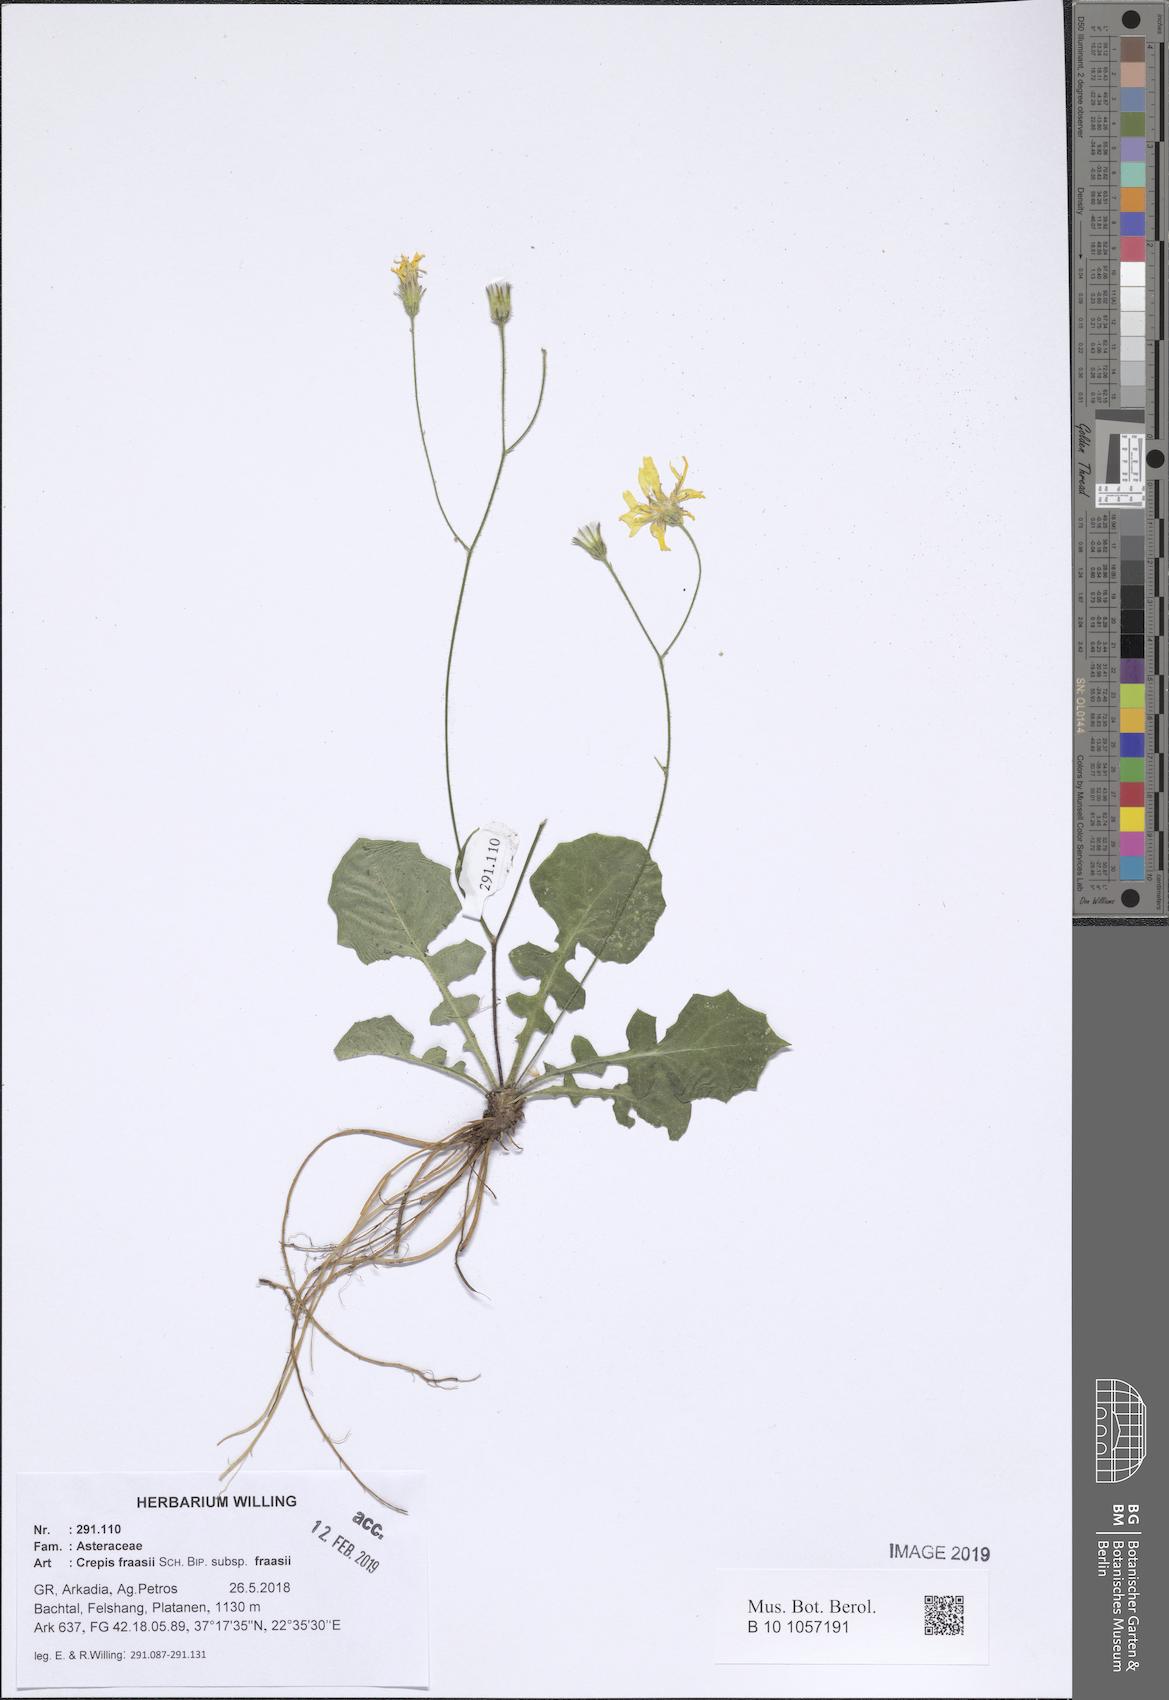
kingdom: Plantae
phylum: Tracheophyta
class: Magnoliopsida
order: Asterales
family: Asteraceae
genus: Crepis
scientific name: Crepis fraasii
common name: Hawk's-beard
